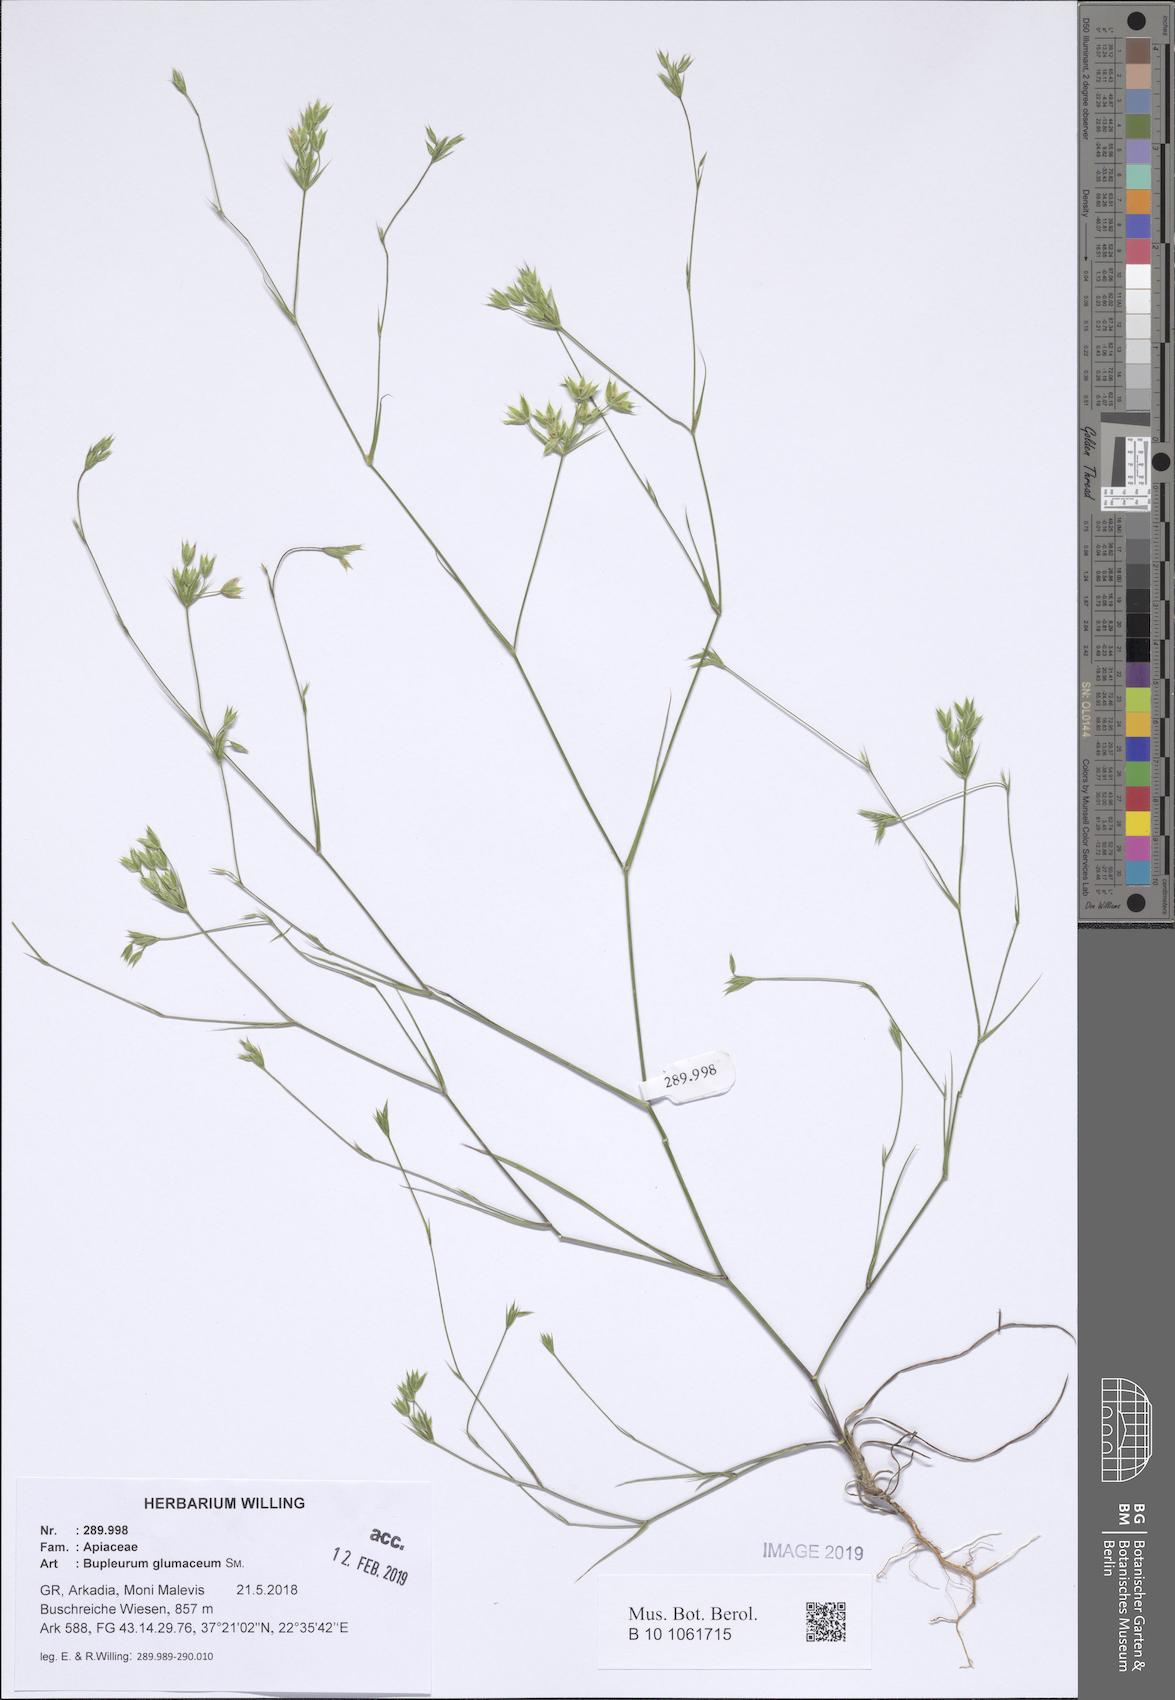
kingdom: Plantae
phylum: Tracheophyta
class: Magnoliopsida
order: Apiales
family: Apiaceae
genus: Bupleurum
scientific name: Bupleurum glumaceum
